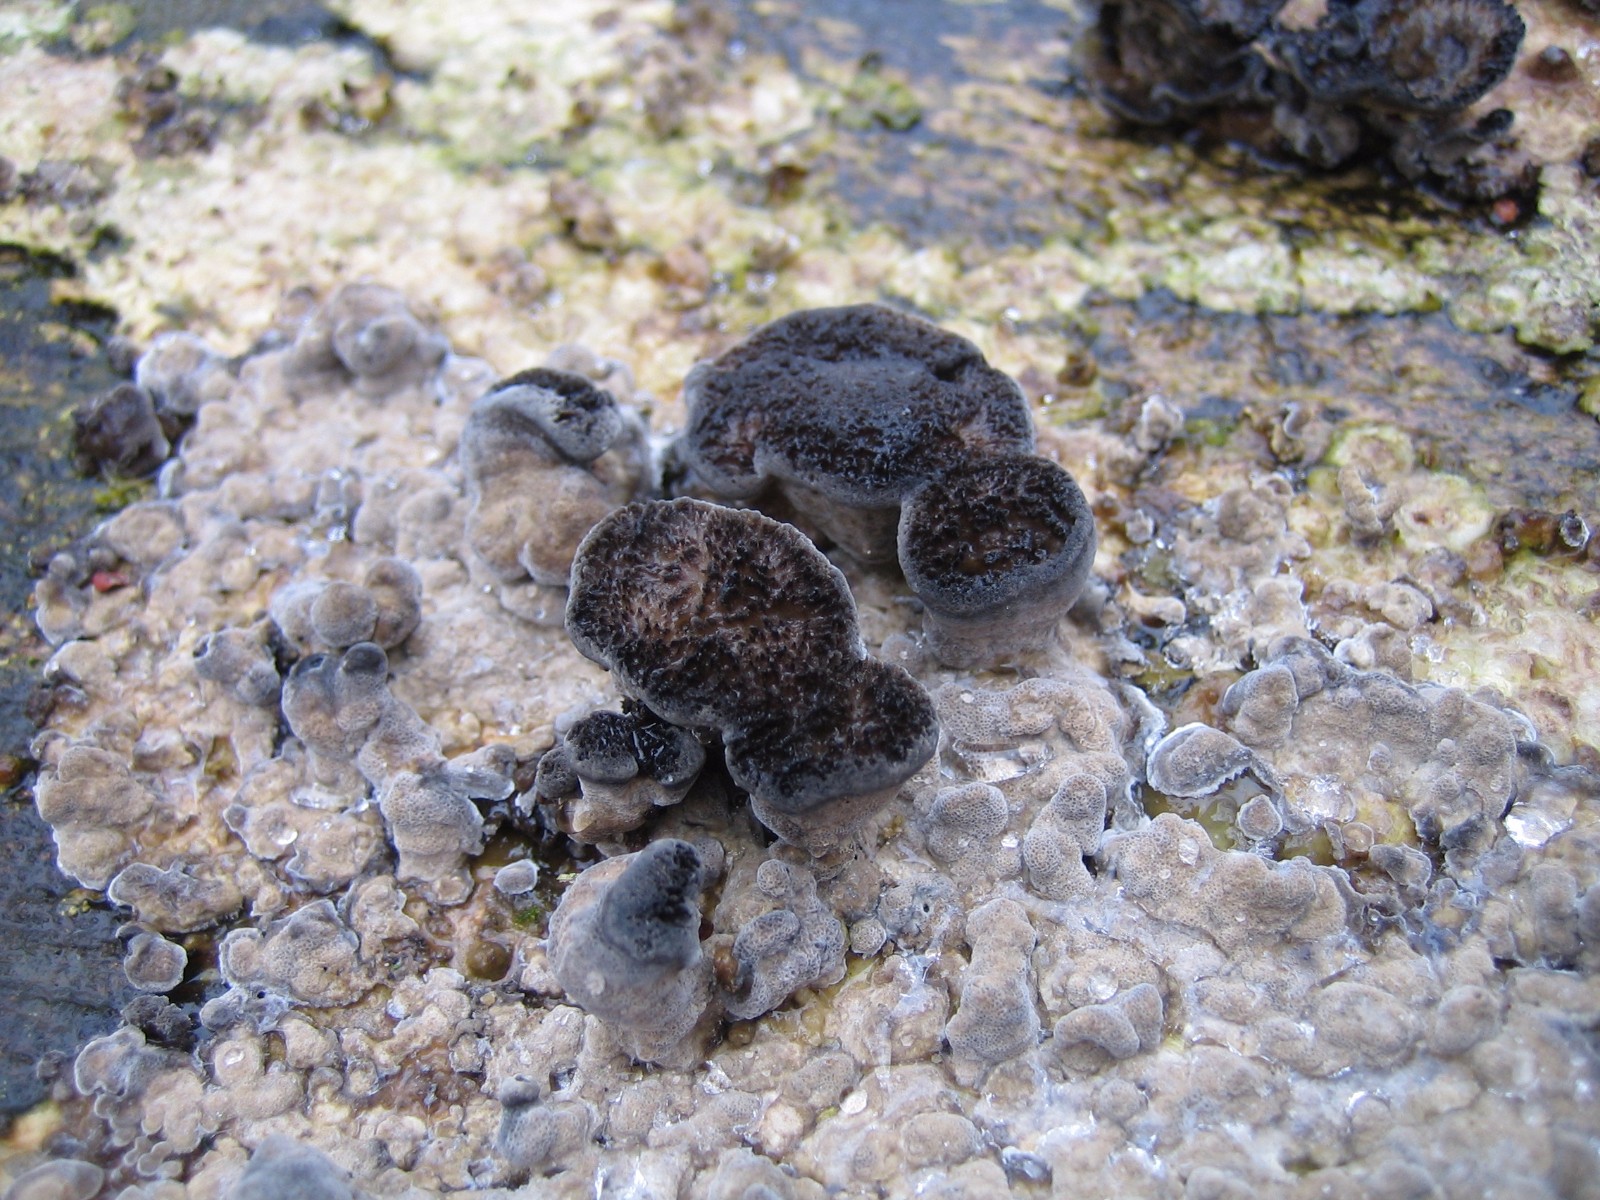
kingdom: Fungi
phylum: Basidiomycota
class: Agaricomycetes
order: Polyporales
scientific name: Polyporales
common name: poresvampordenen
